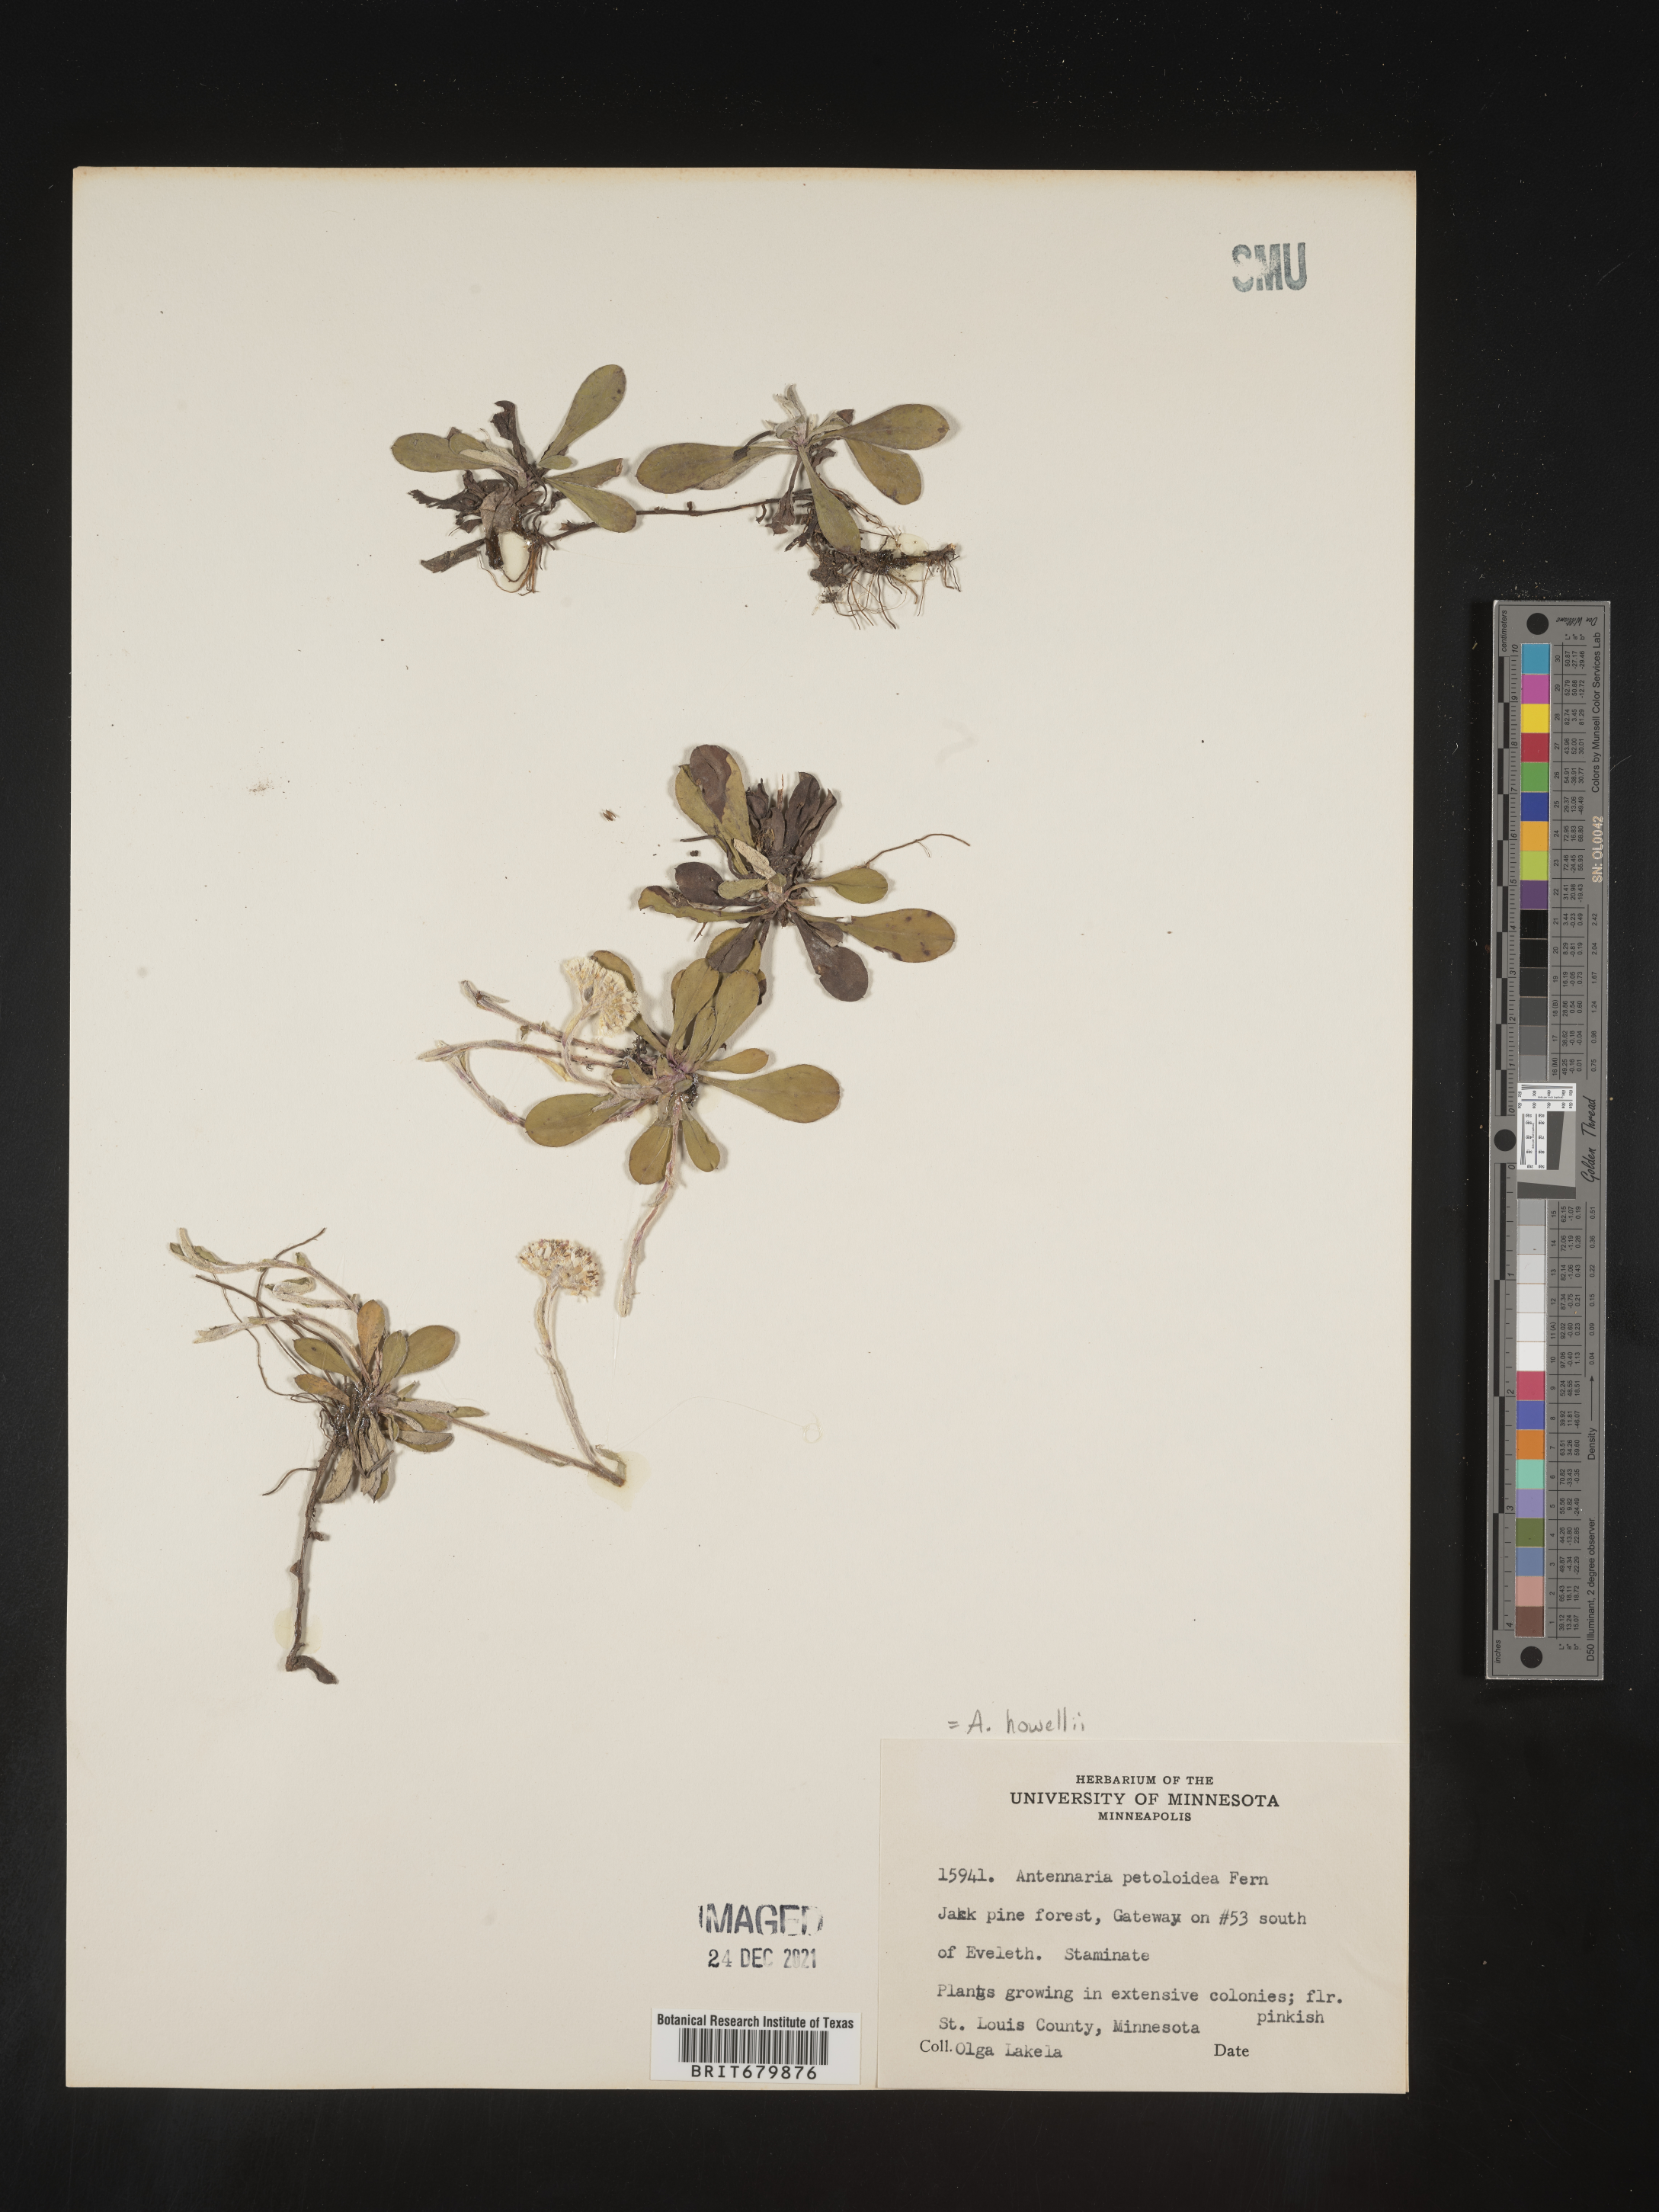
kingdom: Plantae
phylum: Tracheophyta
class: Magnoliopsida
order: Asterales
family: Asteraceae
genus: Antennaria
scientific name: Antennaria howellii
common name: Howell's pussytoes
